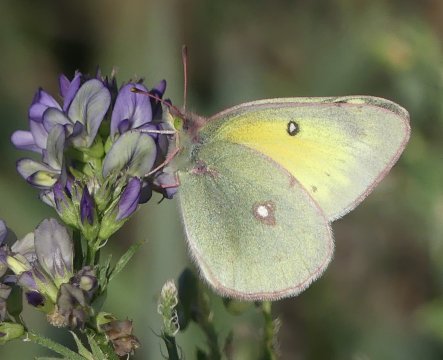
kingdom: Animalia
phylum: Arthropoda
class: Insecta
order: Lepidoptera
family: Pieridae
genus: Colias
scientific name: Colias
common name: Clouded Yellows
